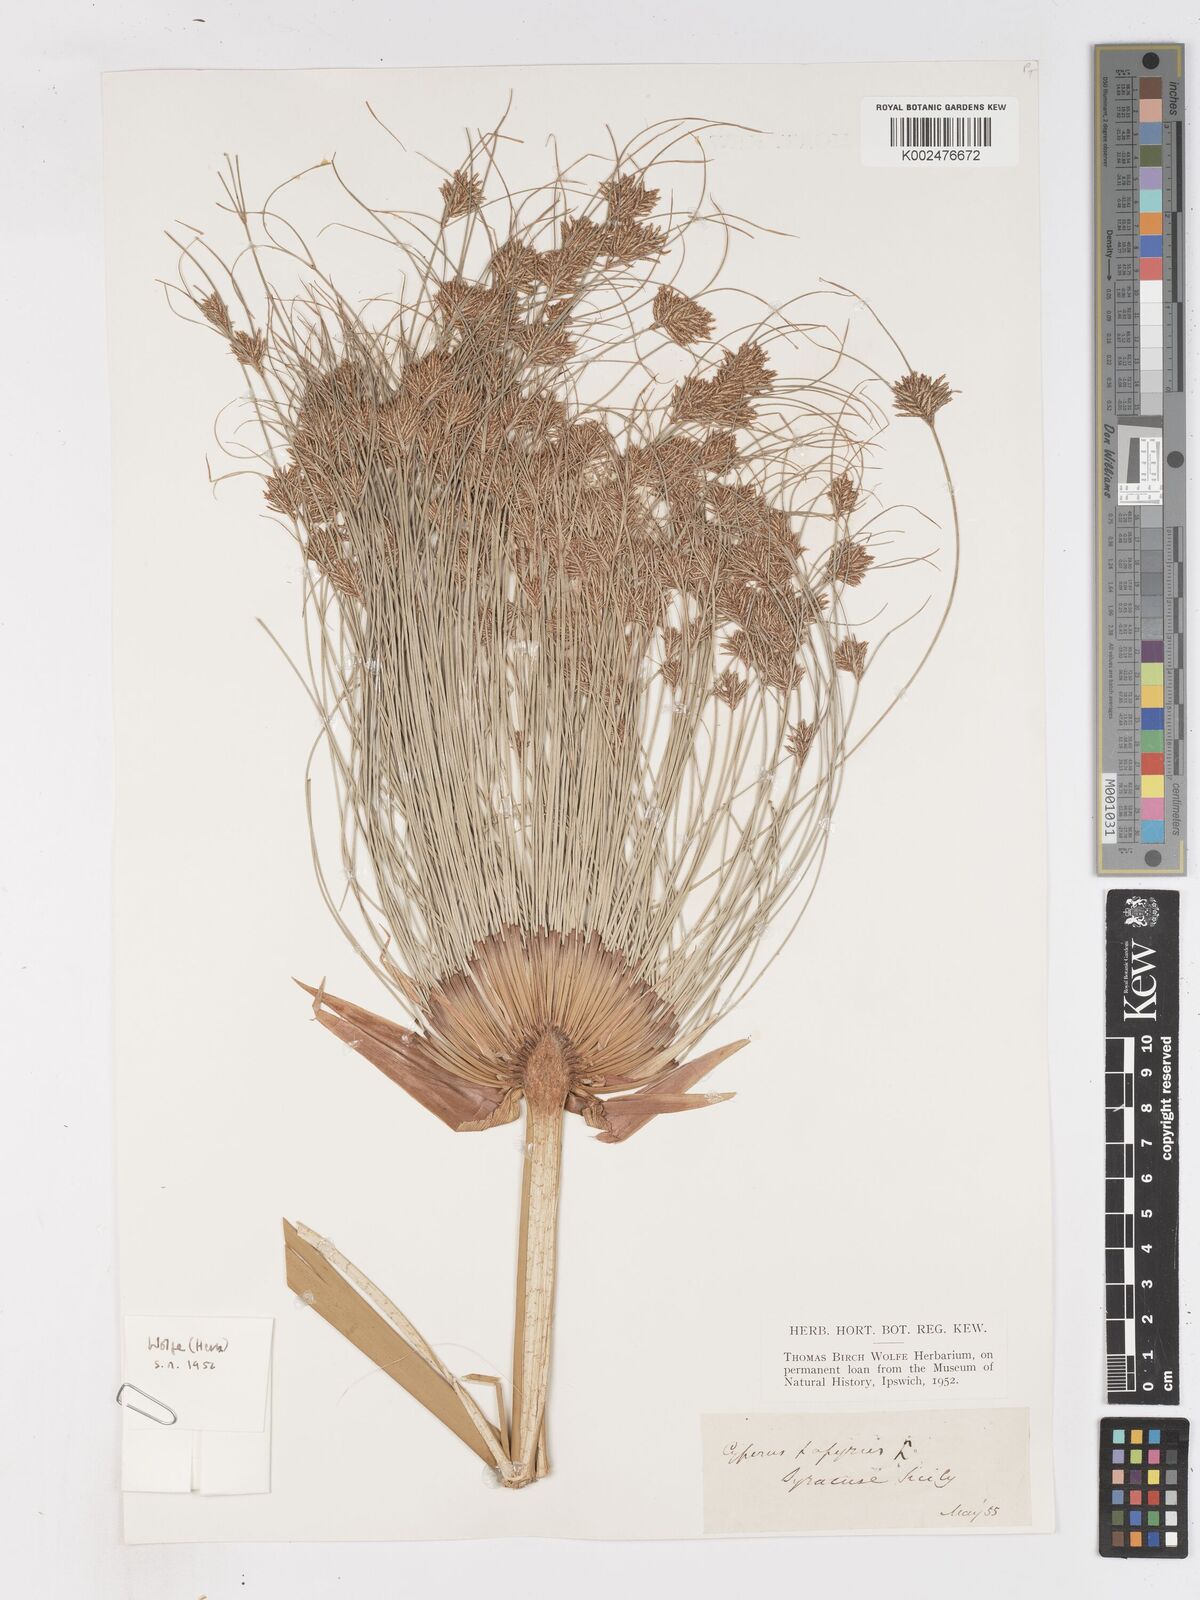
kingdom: Plantae
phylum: Tracheophyta
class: Liliopsida
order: Poales
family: Cyperaceae
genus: Cyperus
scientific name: Cyperus papyrus
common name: Papyrus
